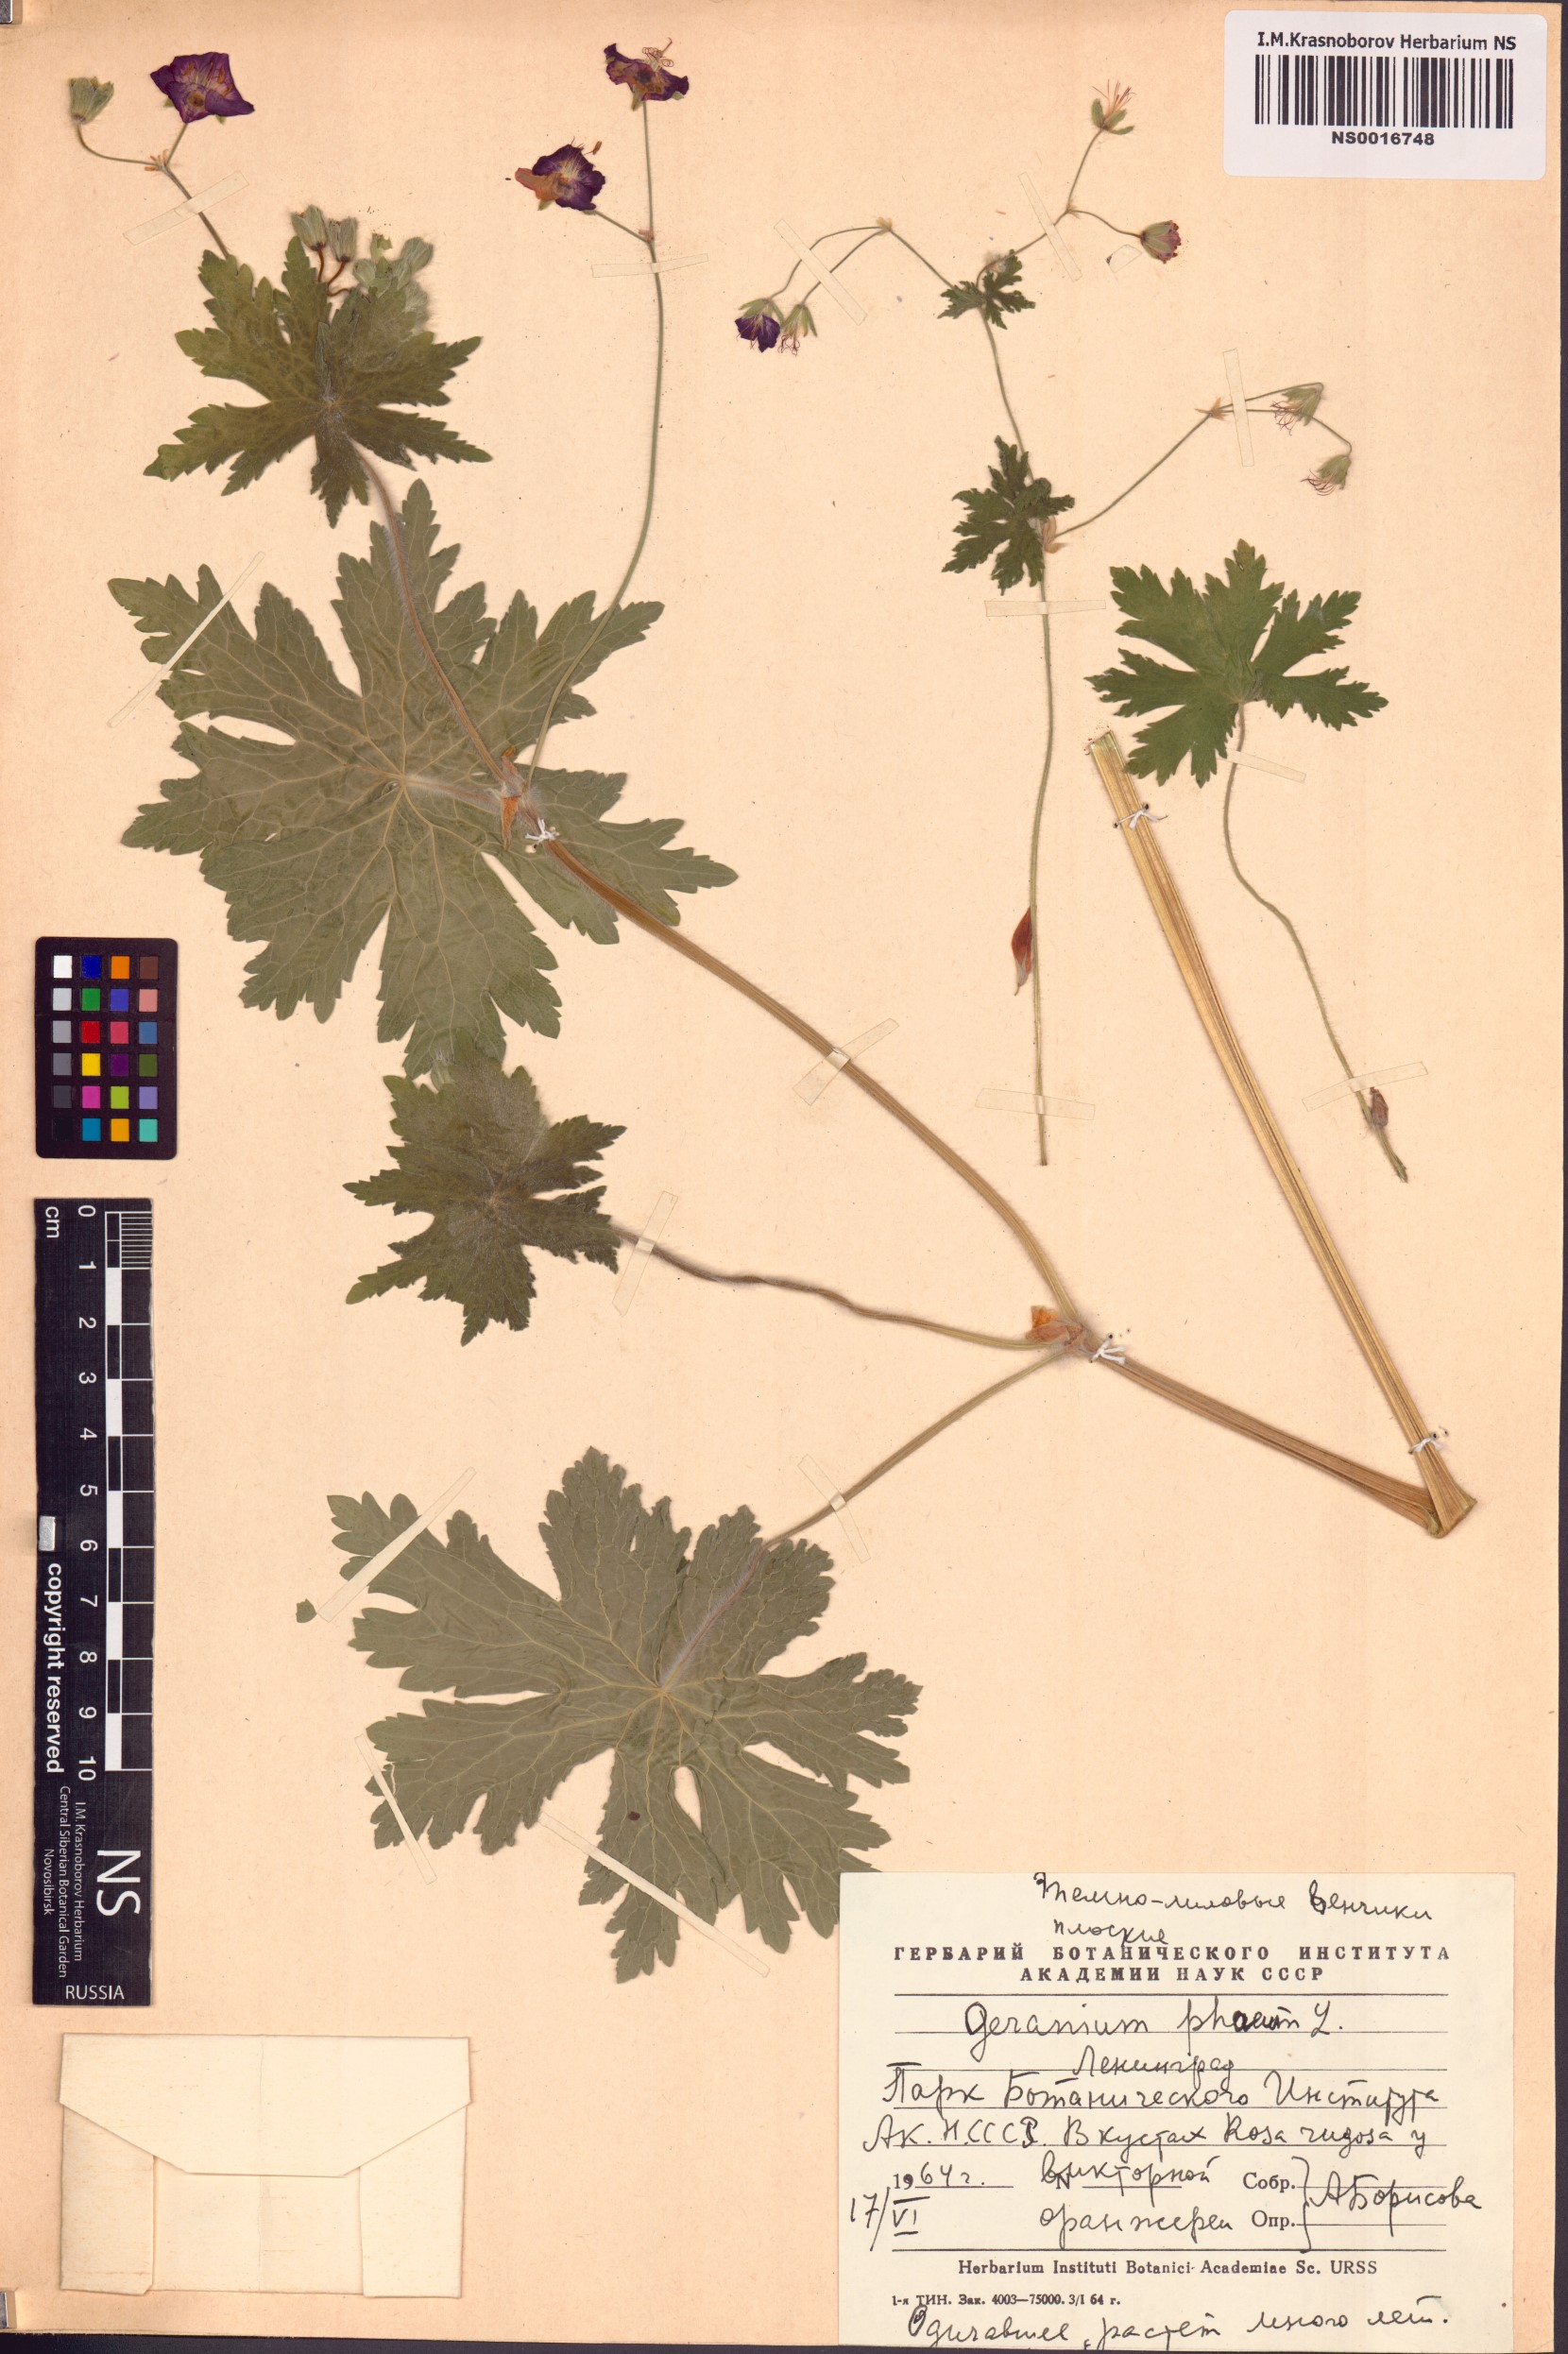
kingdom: Plantae
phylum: Tracheophyta
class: Magnoliopsida
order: Geraniales
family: Geraniaceae
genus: Geranium
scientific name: Geranium phaeum
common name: Dusky crane's-bill
